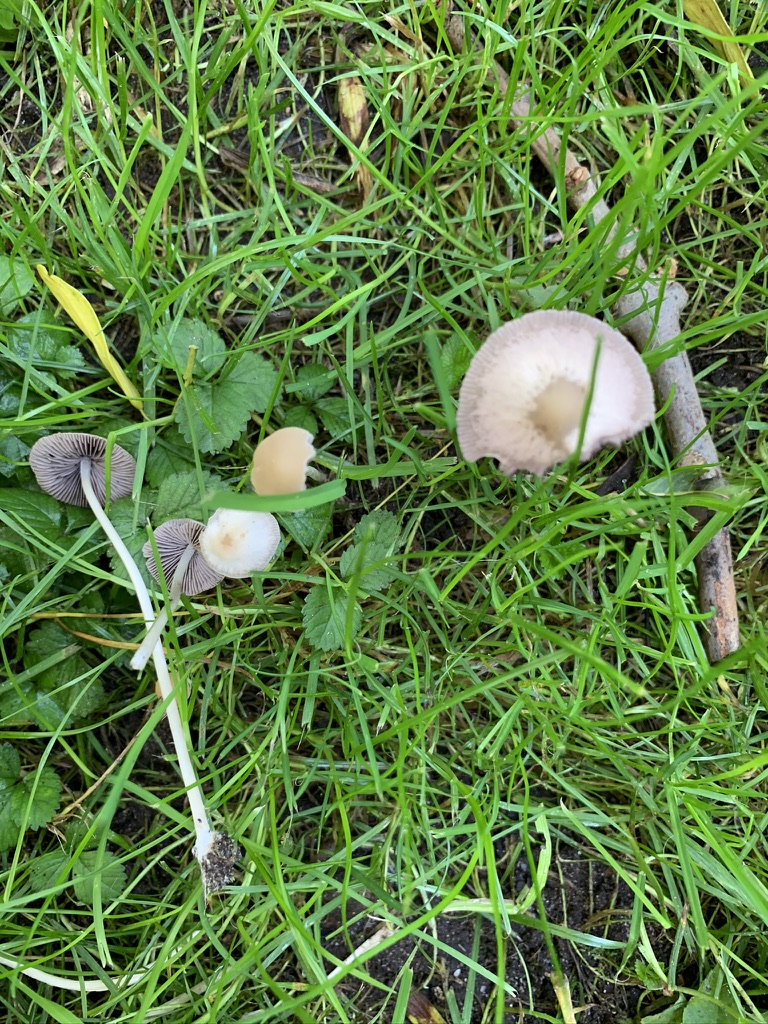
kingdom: Fungi
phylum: Basidiomycota
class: Agaricomycetes
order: Agaricales
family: Psathyrellaceae
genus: Psathyrella
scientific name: Psathyrella corrugis
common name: rødægget mørkhat
